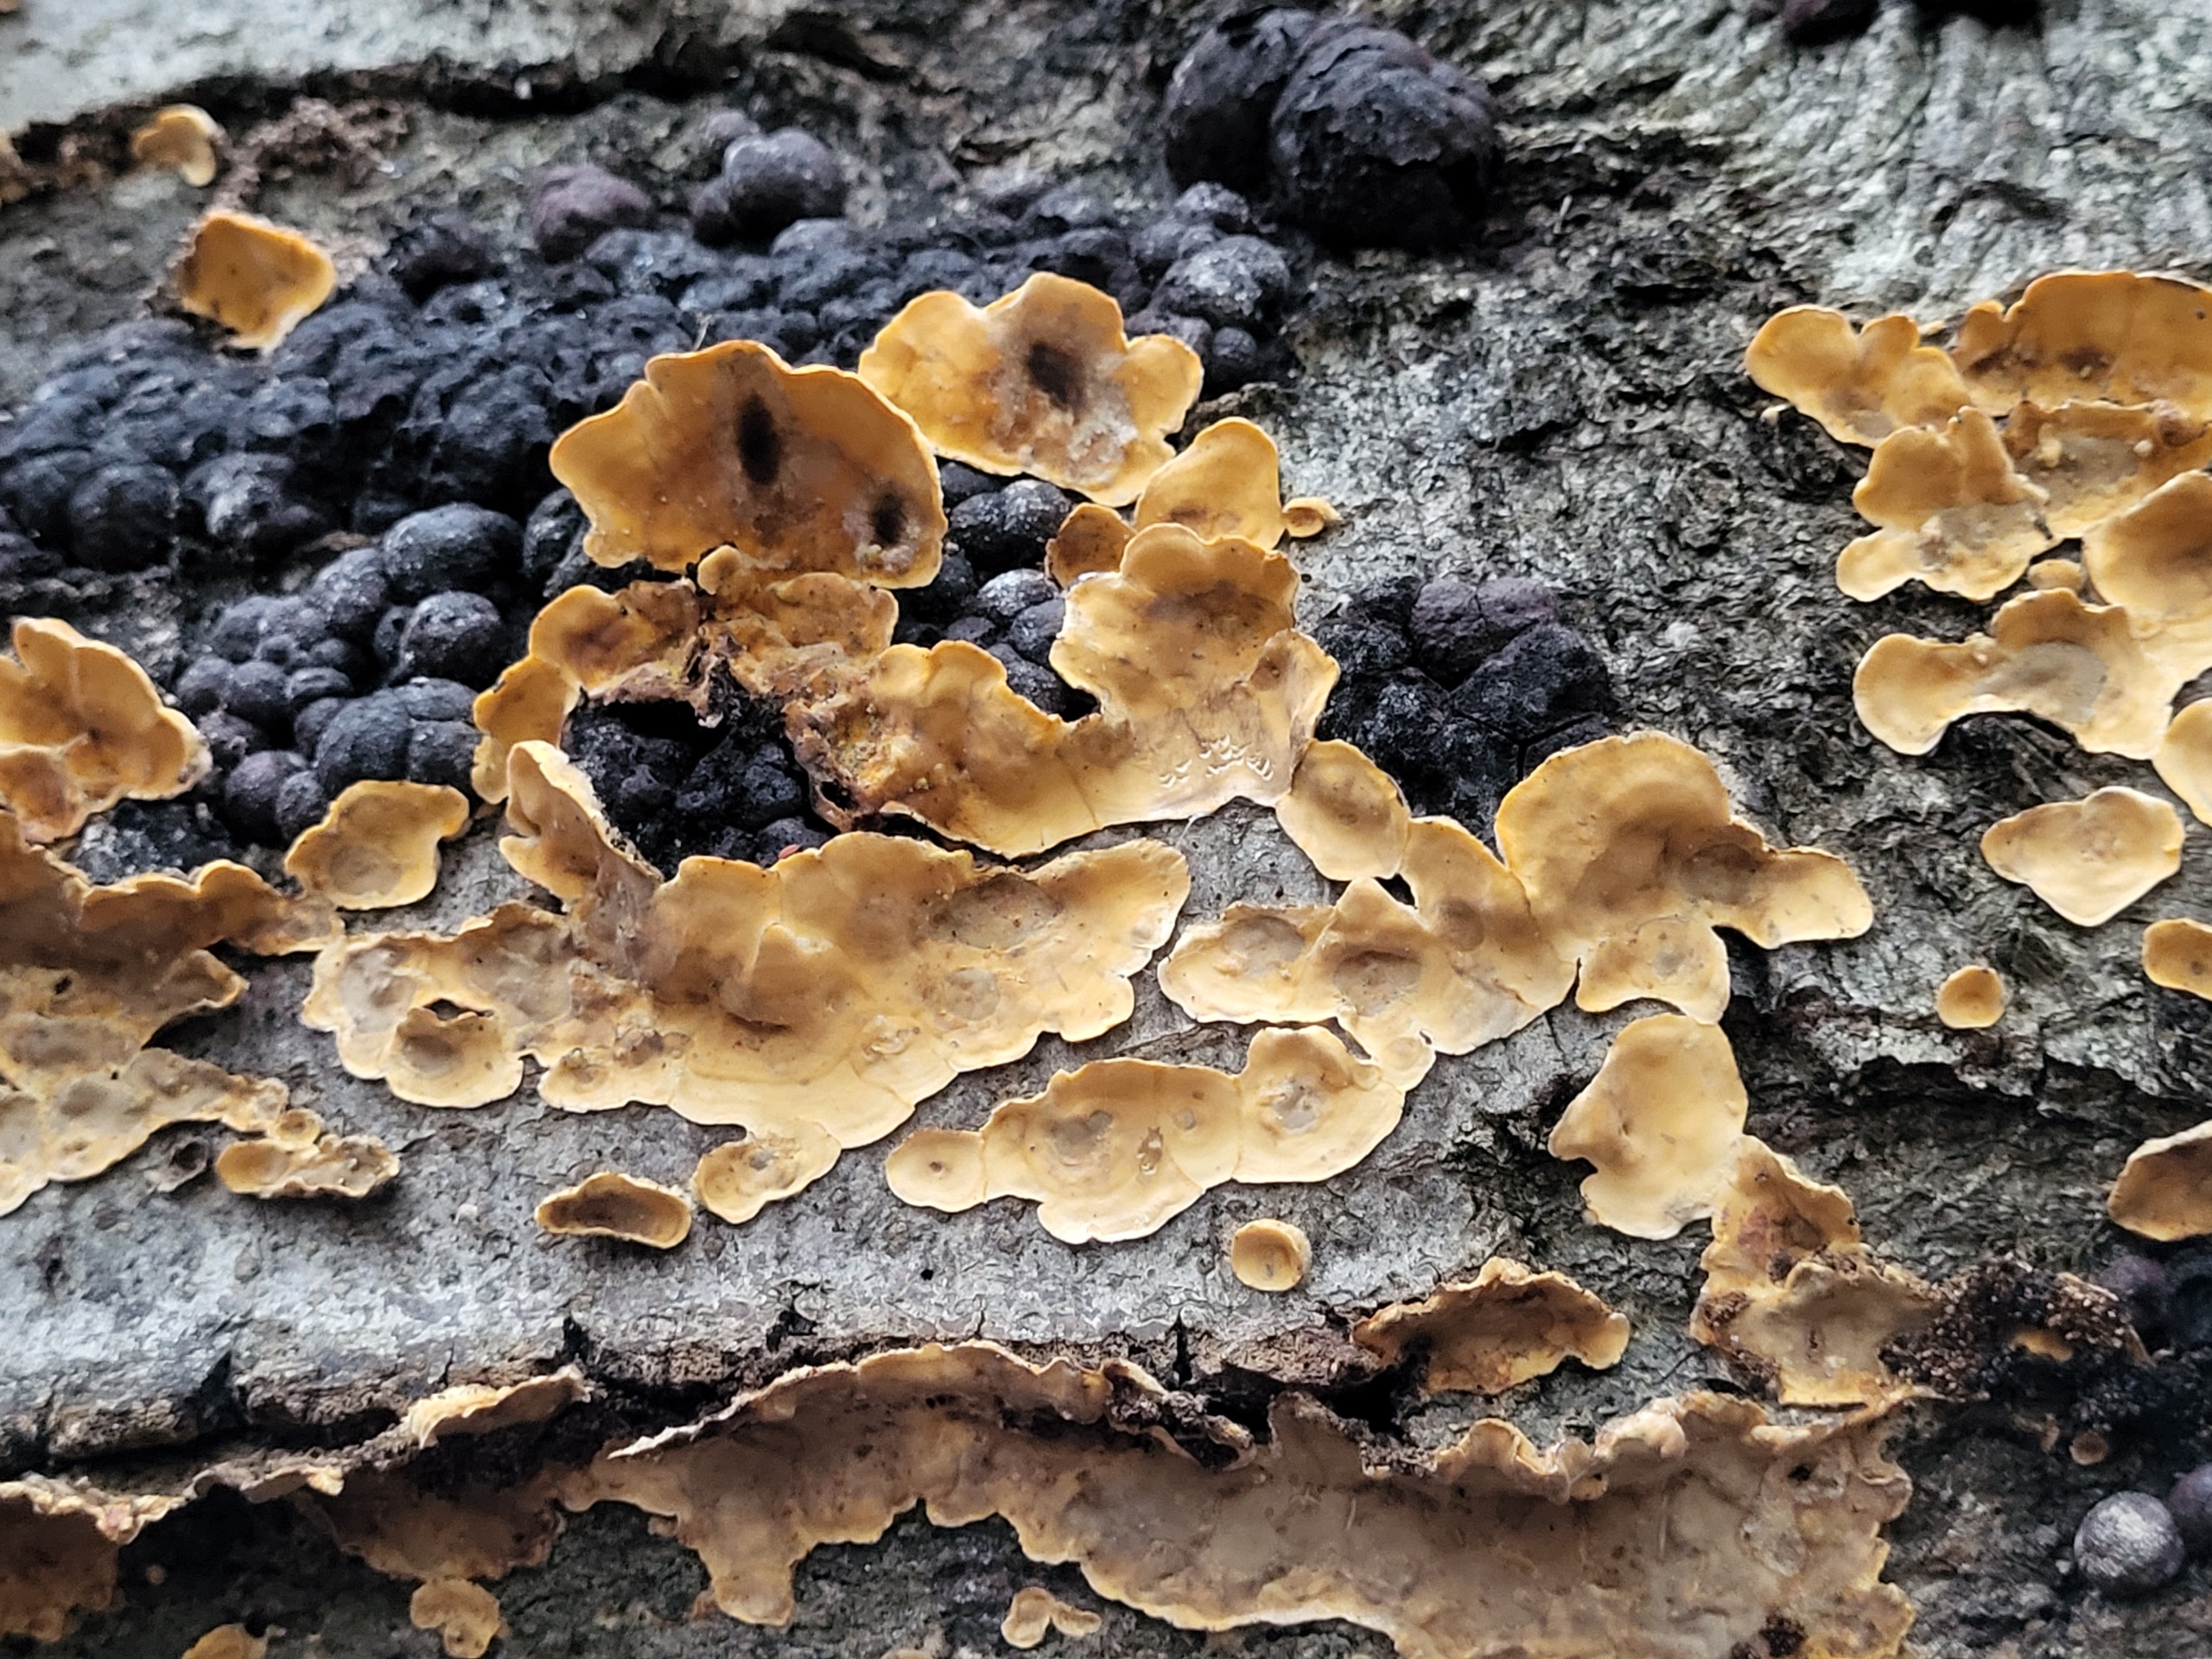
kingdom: Fungi
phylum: Basidiomycota
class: Agaricomycetes
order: Russulales
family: Stereaceae
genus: Stereum
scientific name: Stereum hirsutum
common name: Håret lædersvamp
